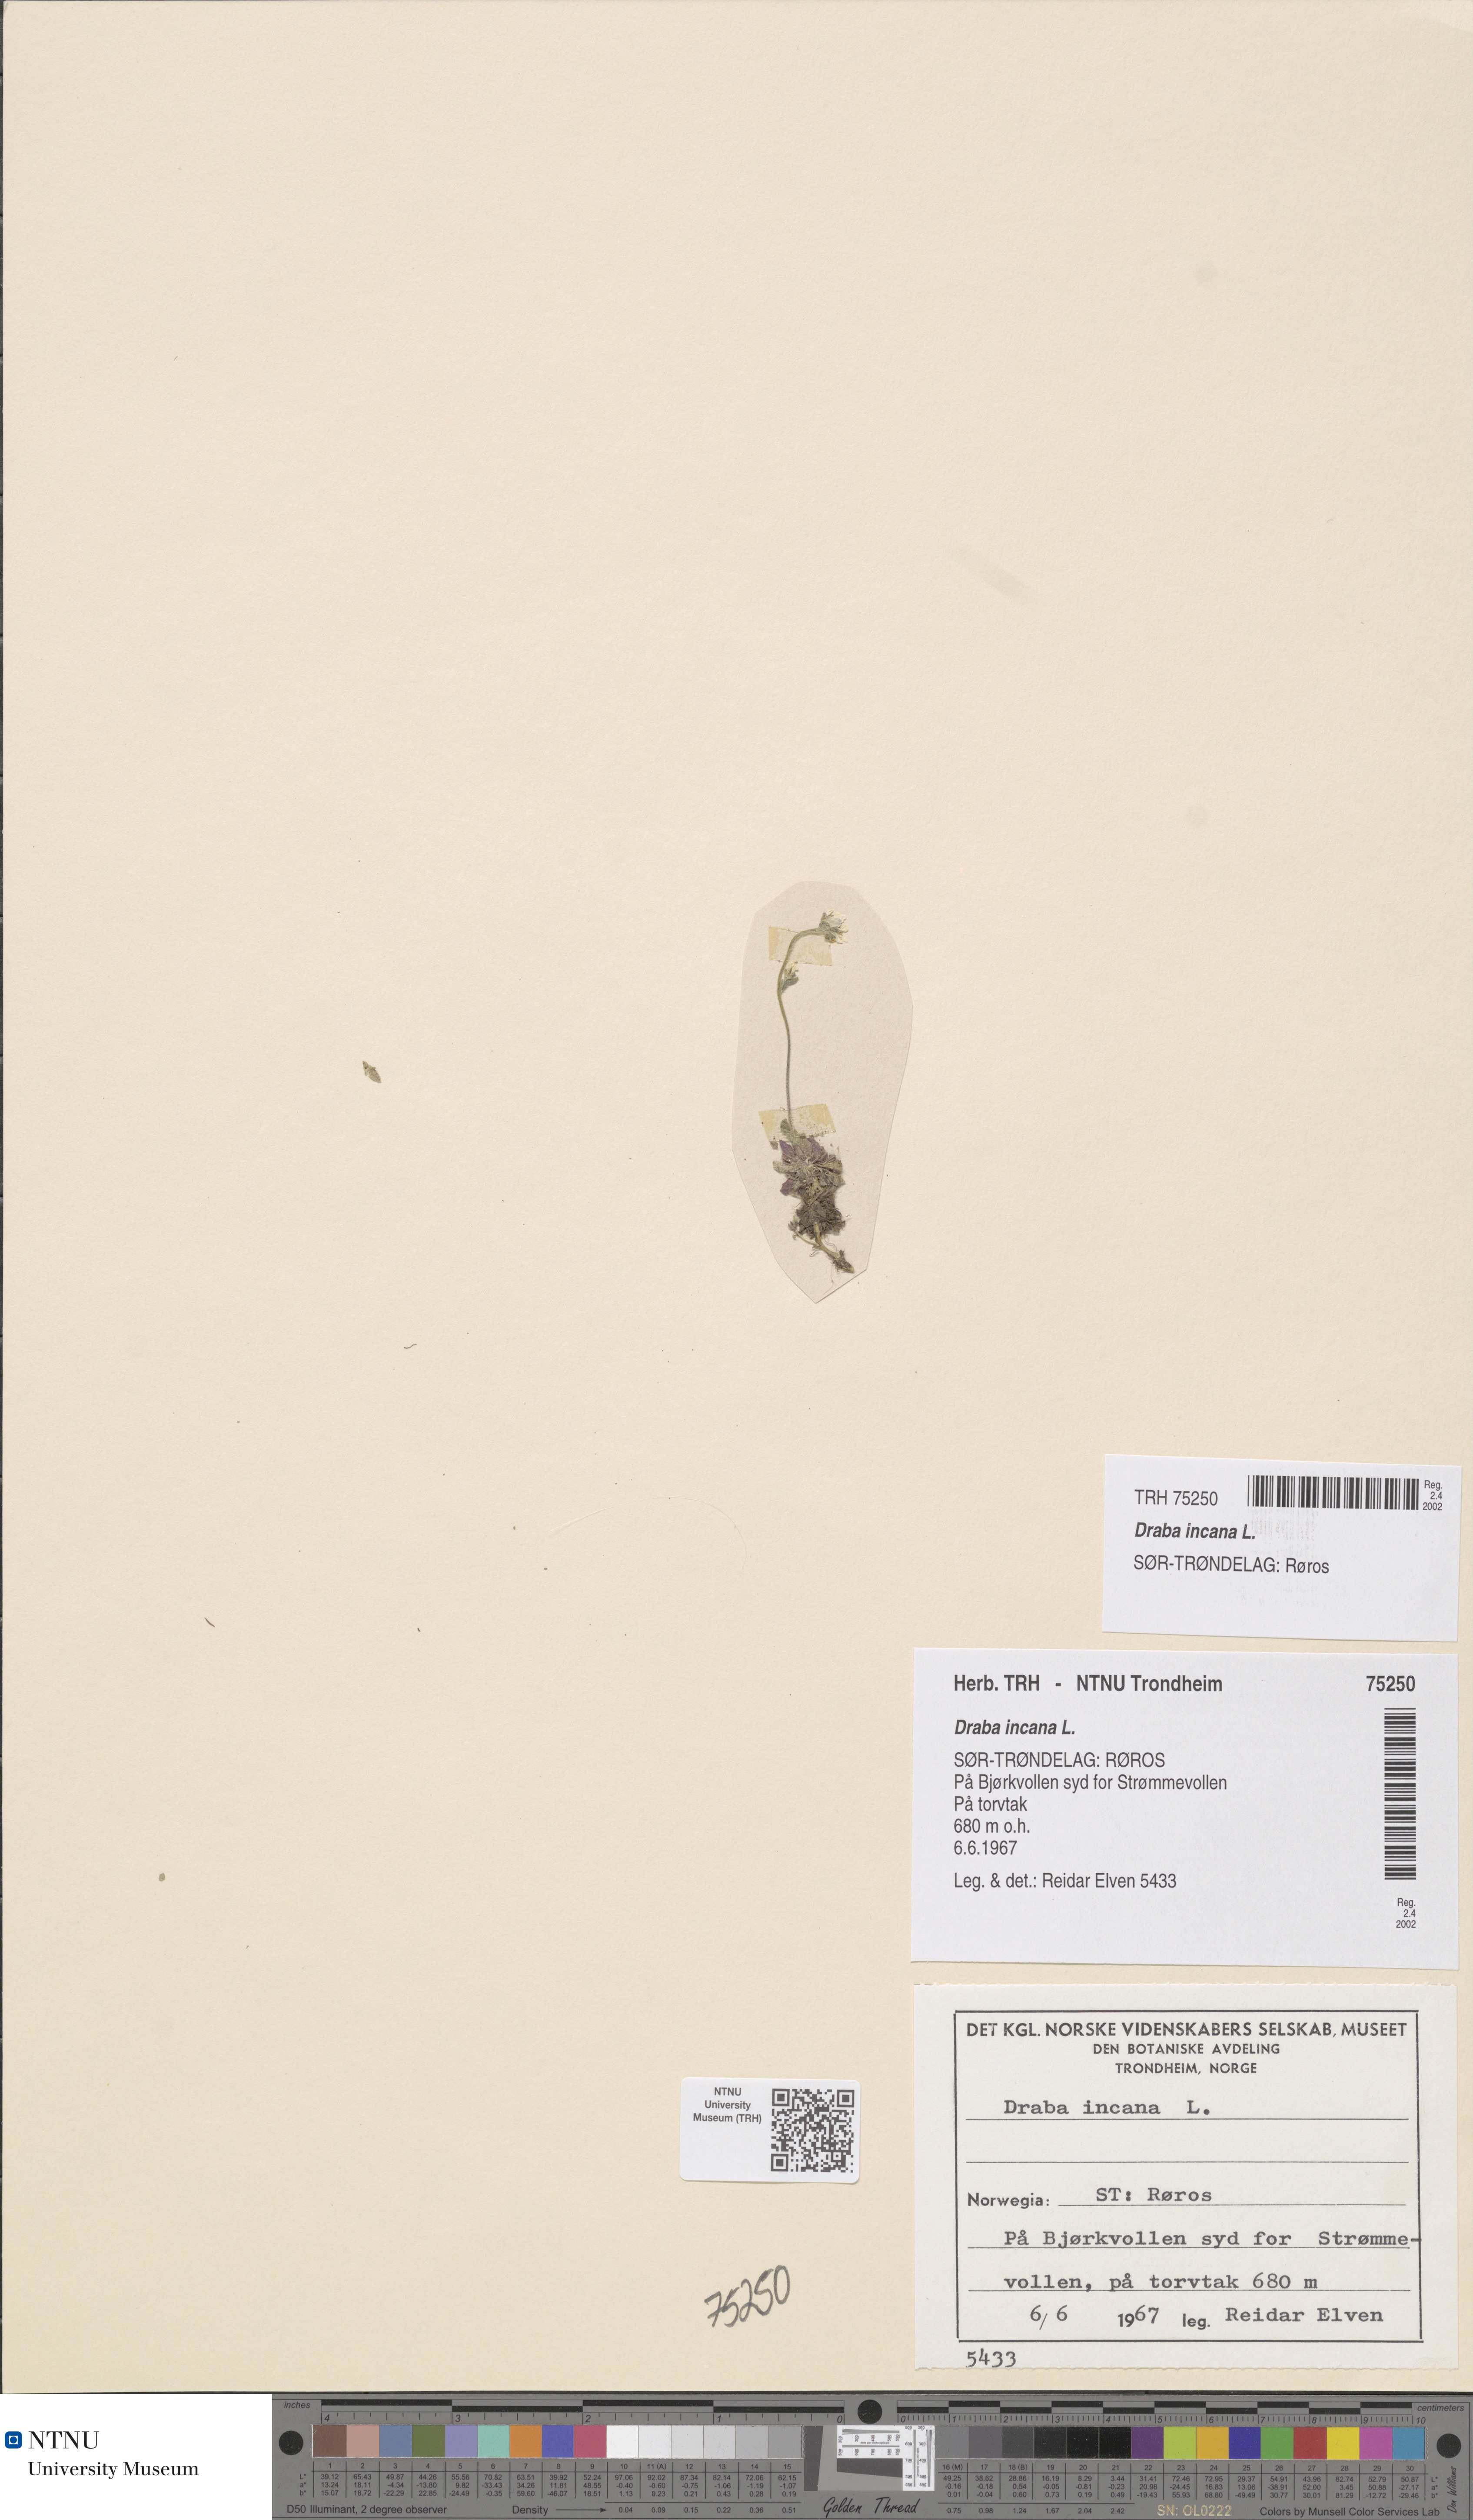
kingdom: Plantae
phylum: Tracheophyta
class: Magnoliopsida
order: Brassicales
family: Brassicaceae
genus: Draba
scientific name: Draba incana
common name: Hoary whitlow-grass
